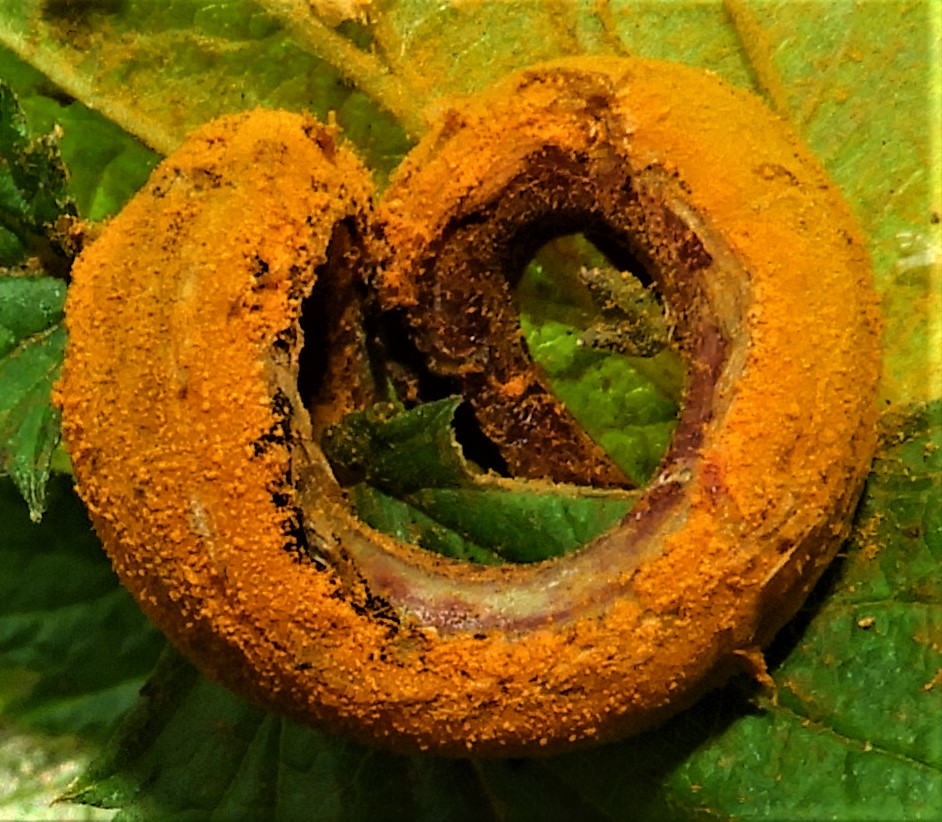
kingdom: Fungi
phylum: Basidiomycota
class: Pucciniomycetes
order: Pucciniales
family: Raveneliaceae
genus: Triphragmium
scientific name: Triphragmium ulmariae
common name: almindelig mjødurtrust
